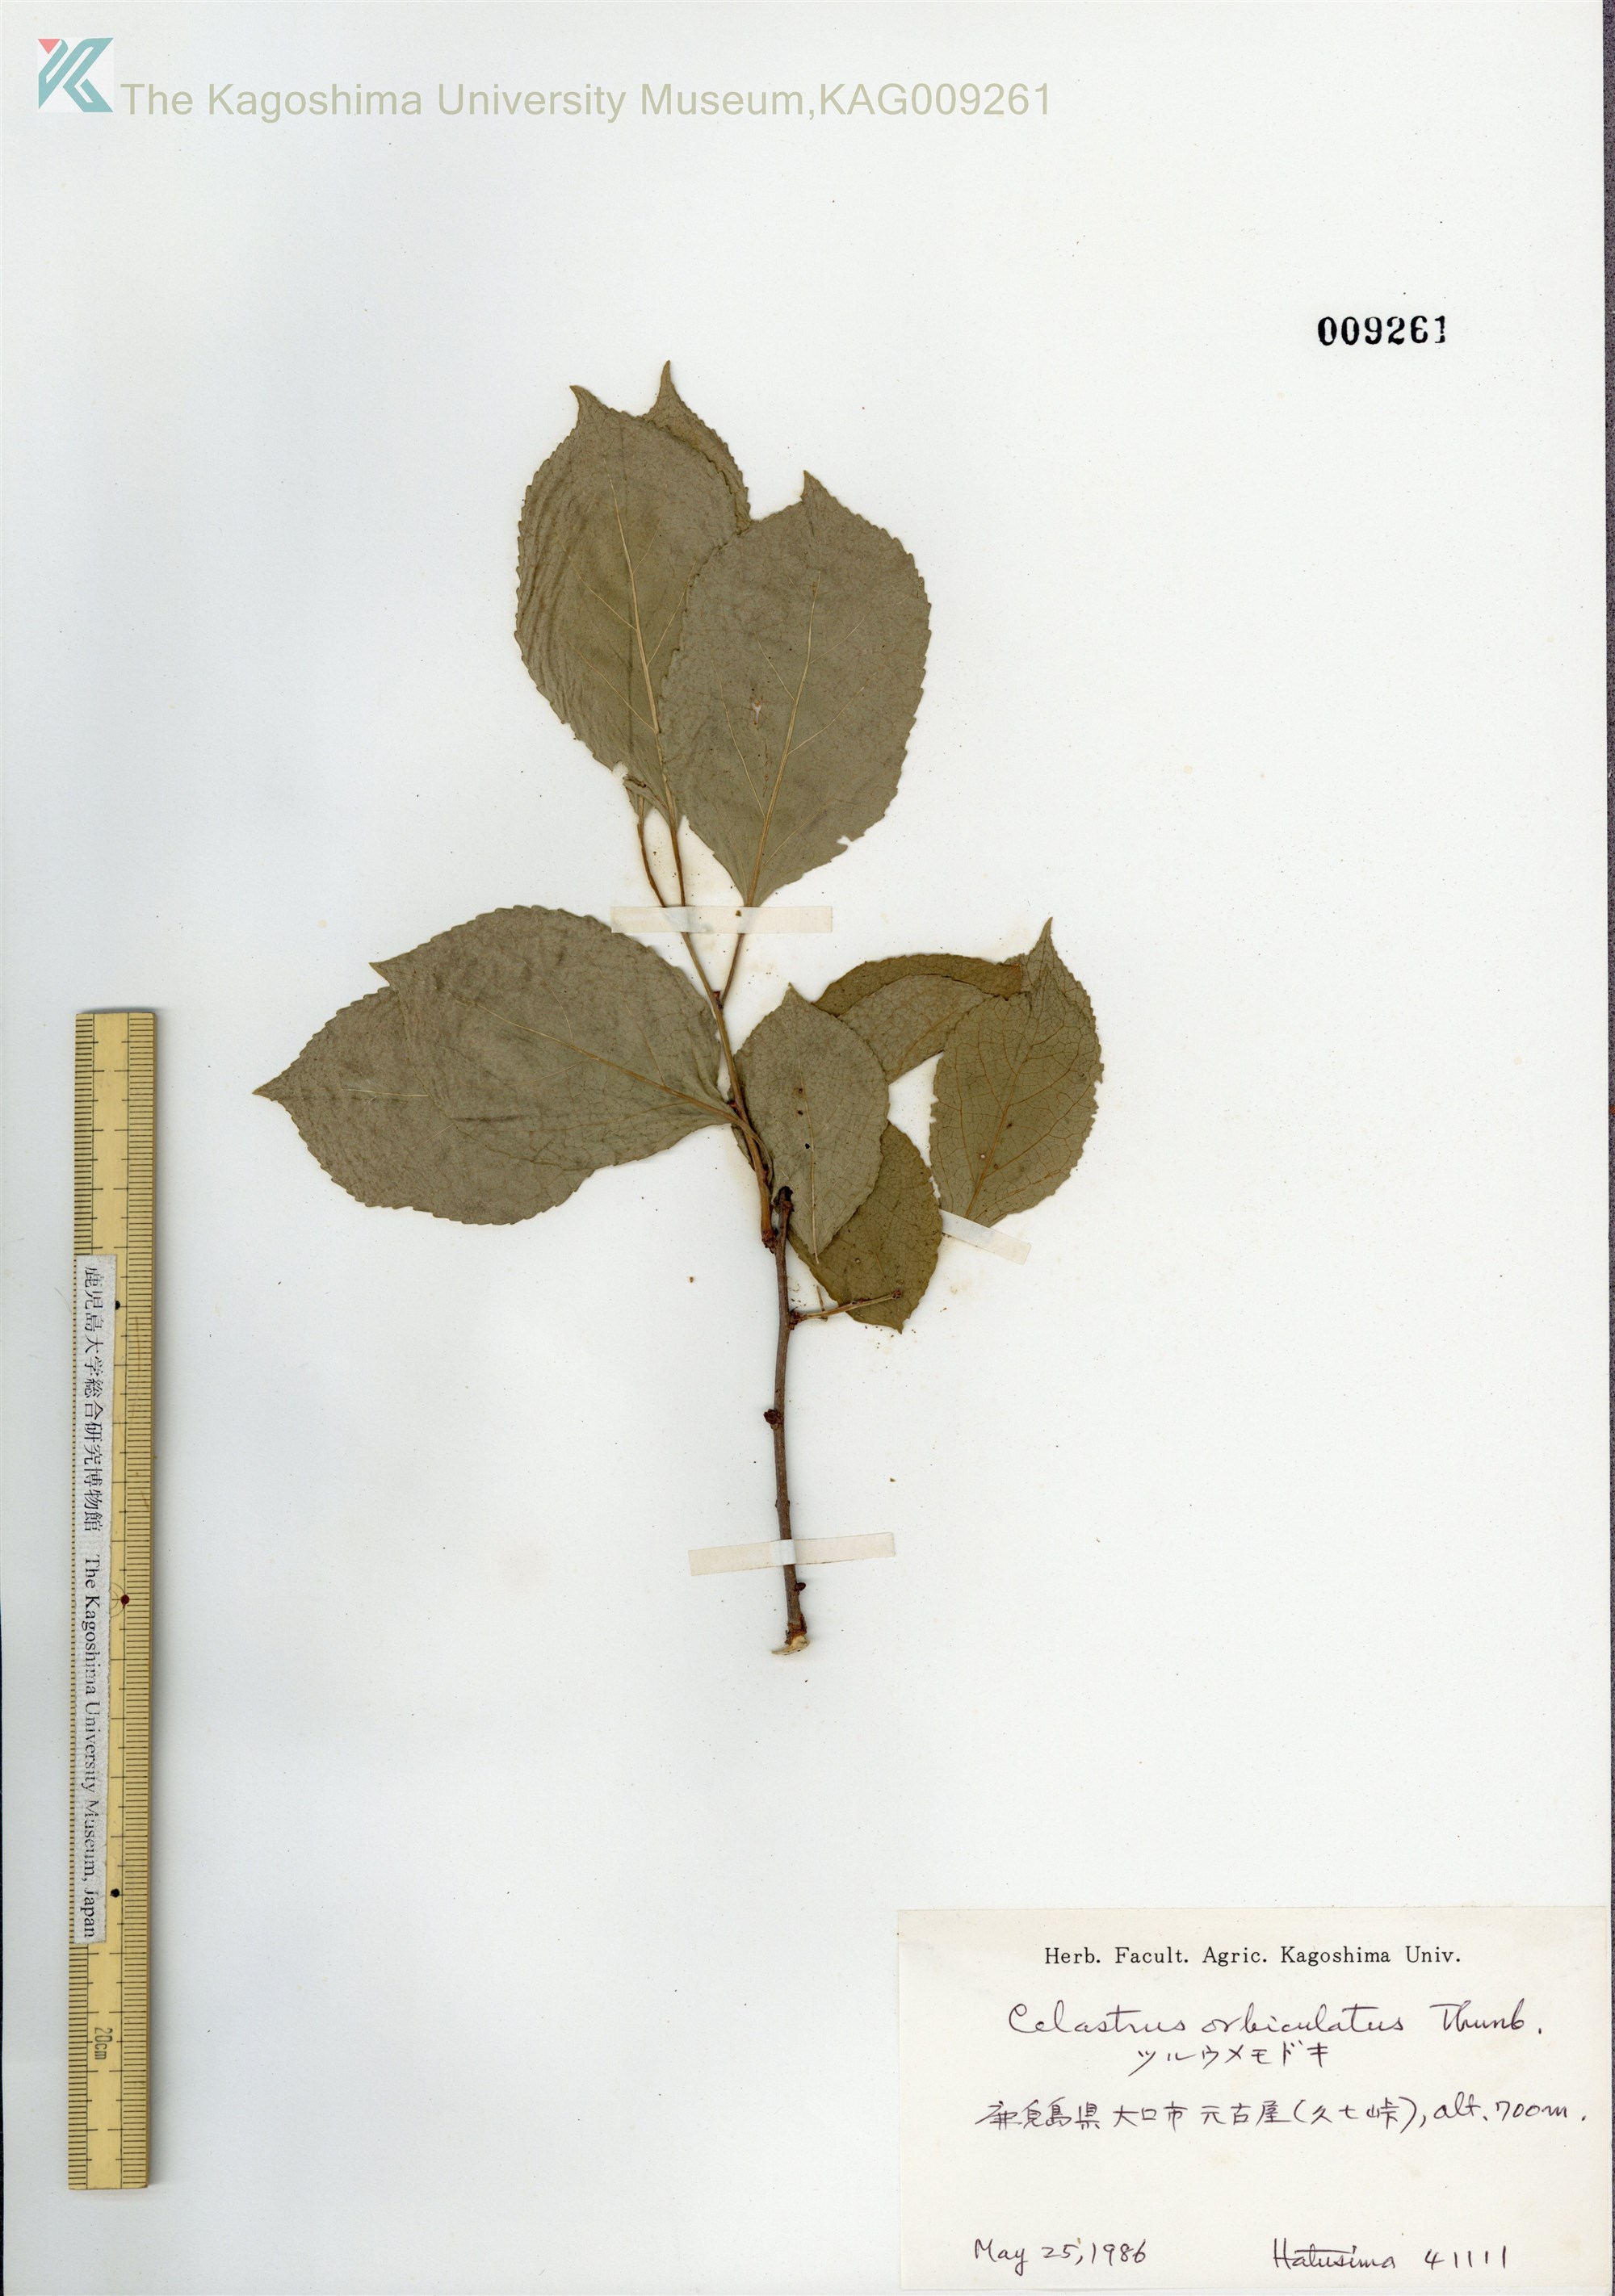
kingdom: Plantae
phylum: Tracheophyta
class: Magnoliopsida
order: Celastrales
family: Celastraceae
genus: Celastrus
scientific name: Celastrus orbiculatus
